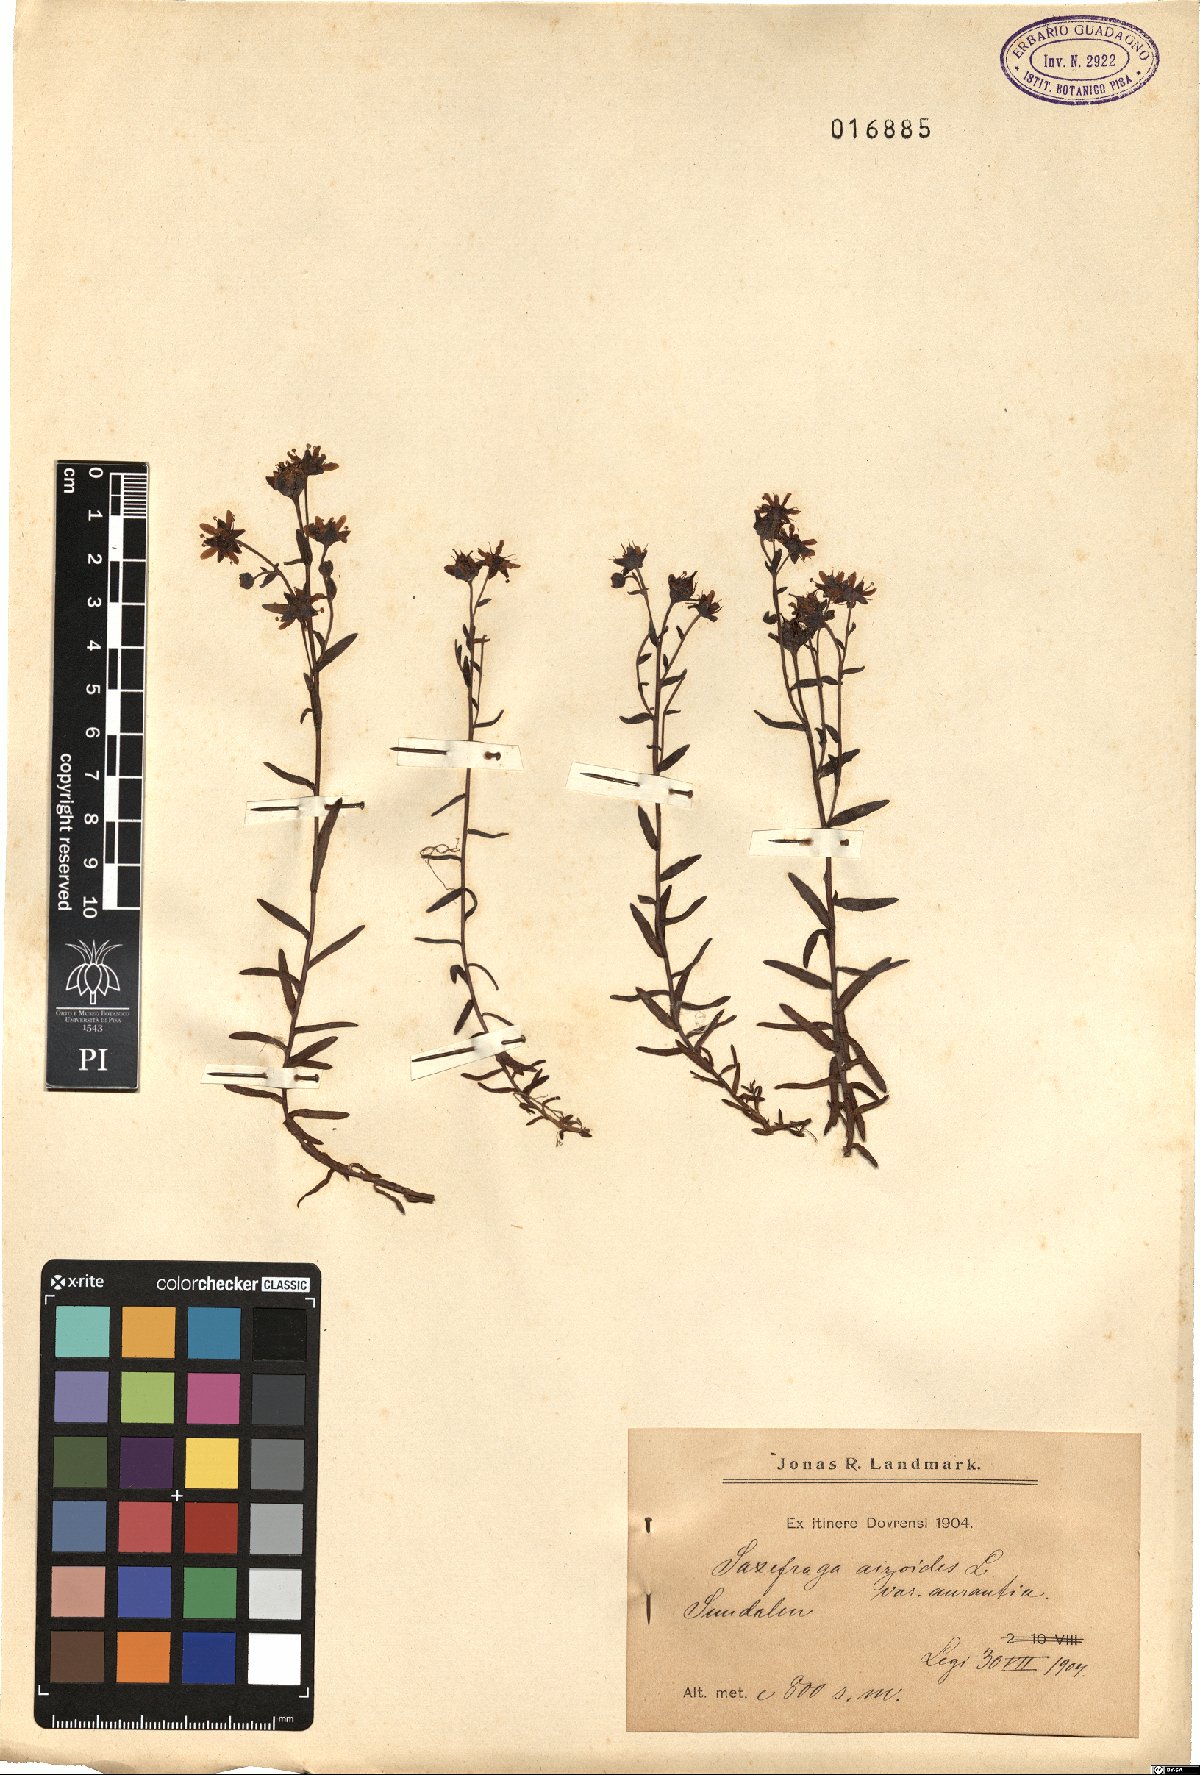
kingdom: Plantae
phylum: Tracheophyta
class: Magnoliopsida
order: Saxifragales
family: Saxifragaceae
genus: Saxifraga
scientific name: Saxifraga aizoides
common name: Yellow mountain saxifrage
